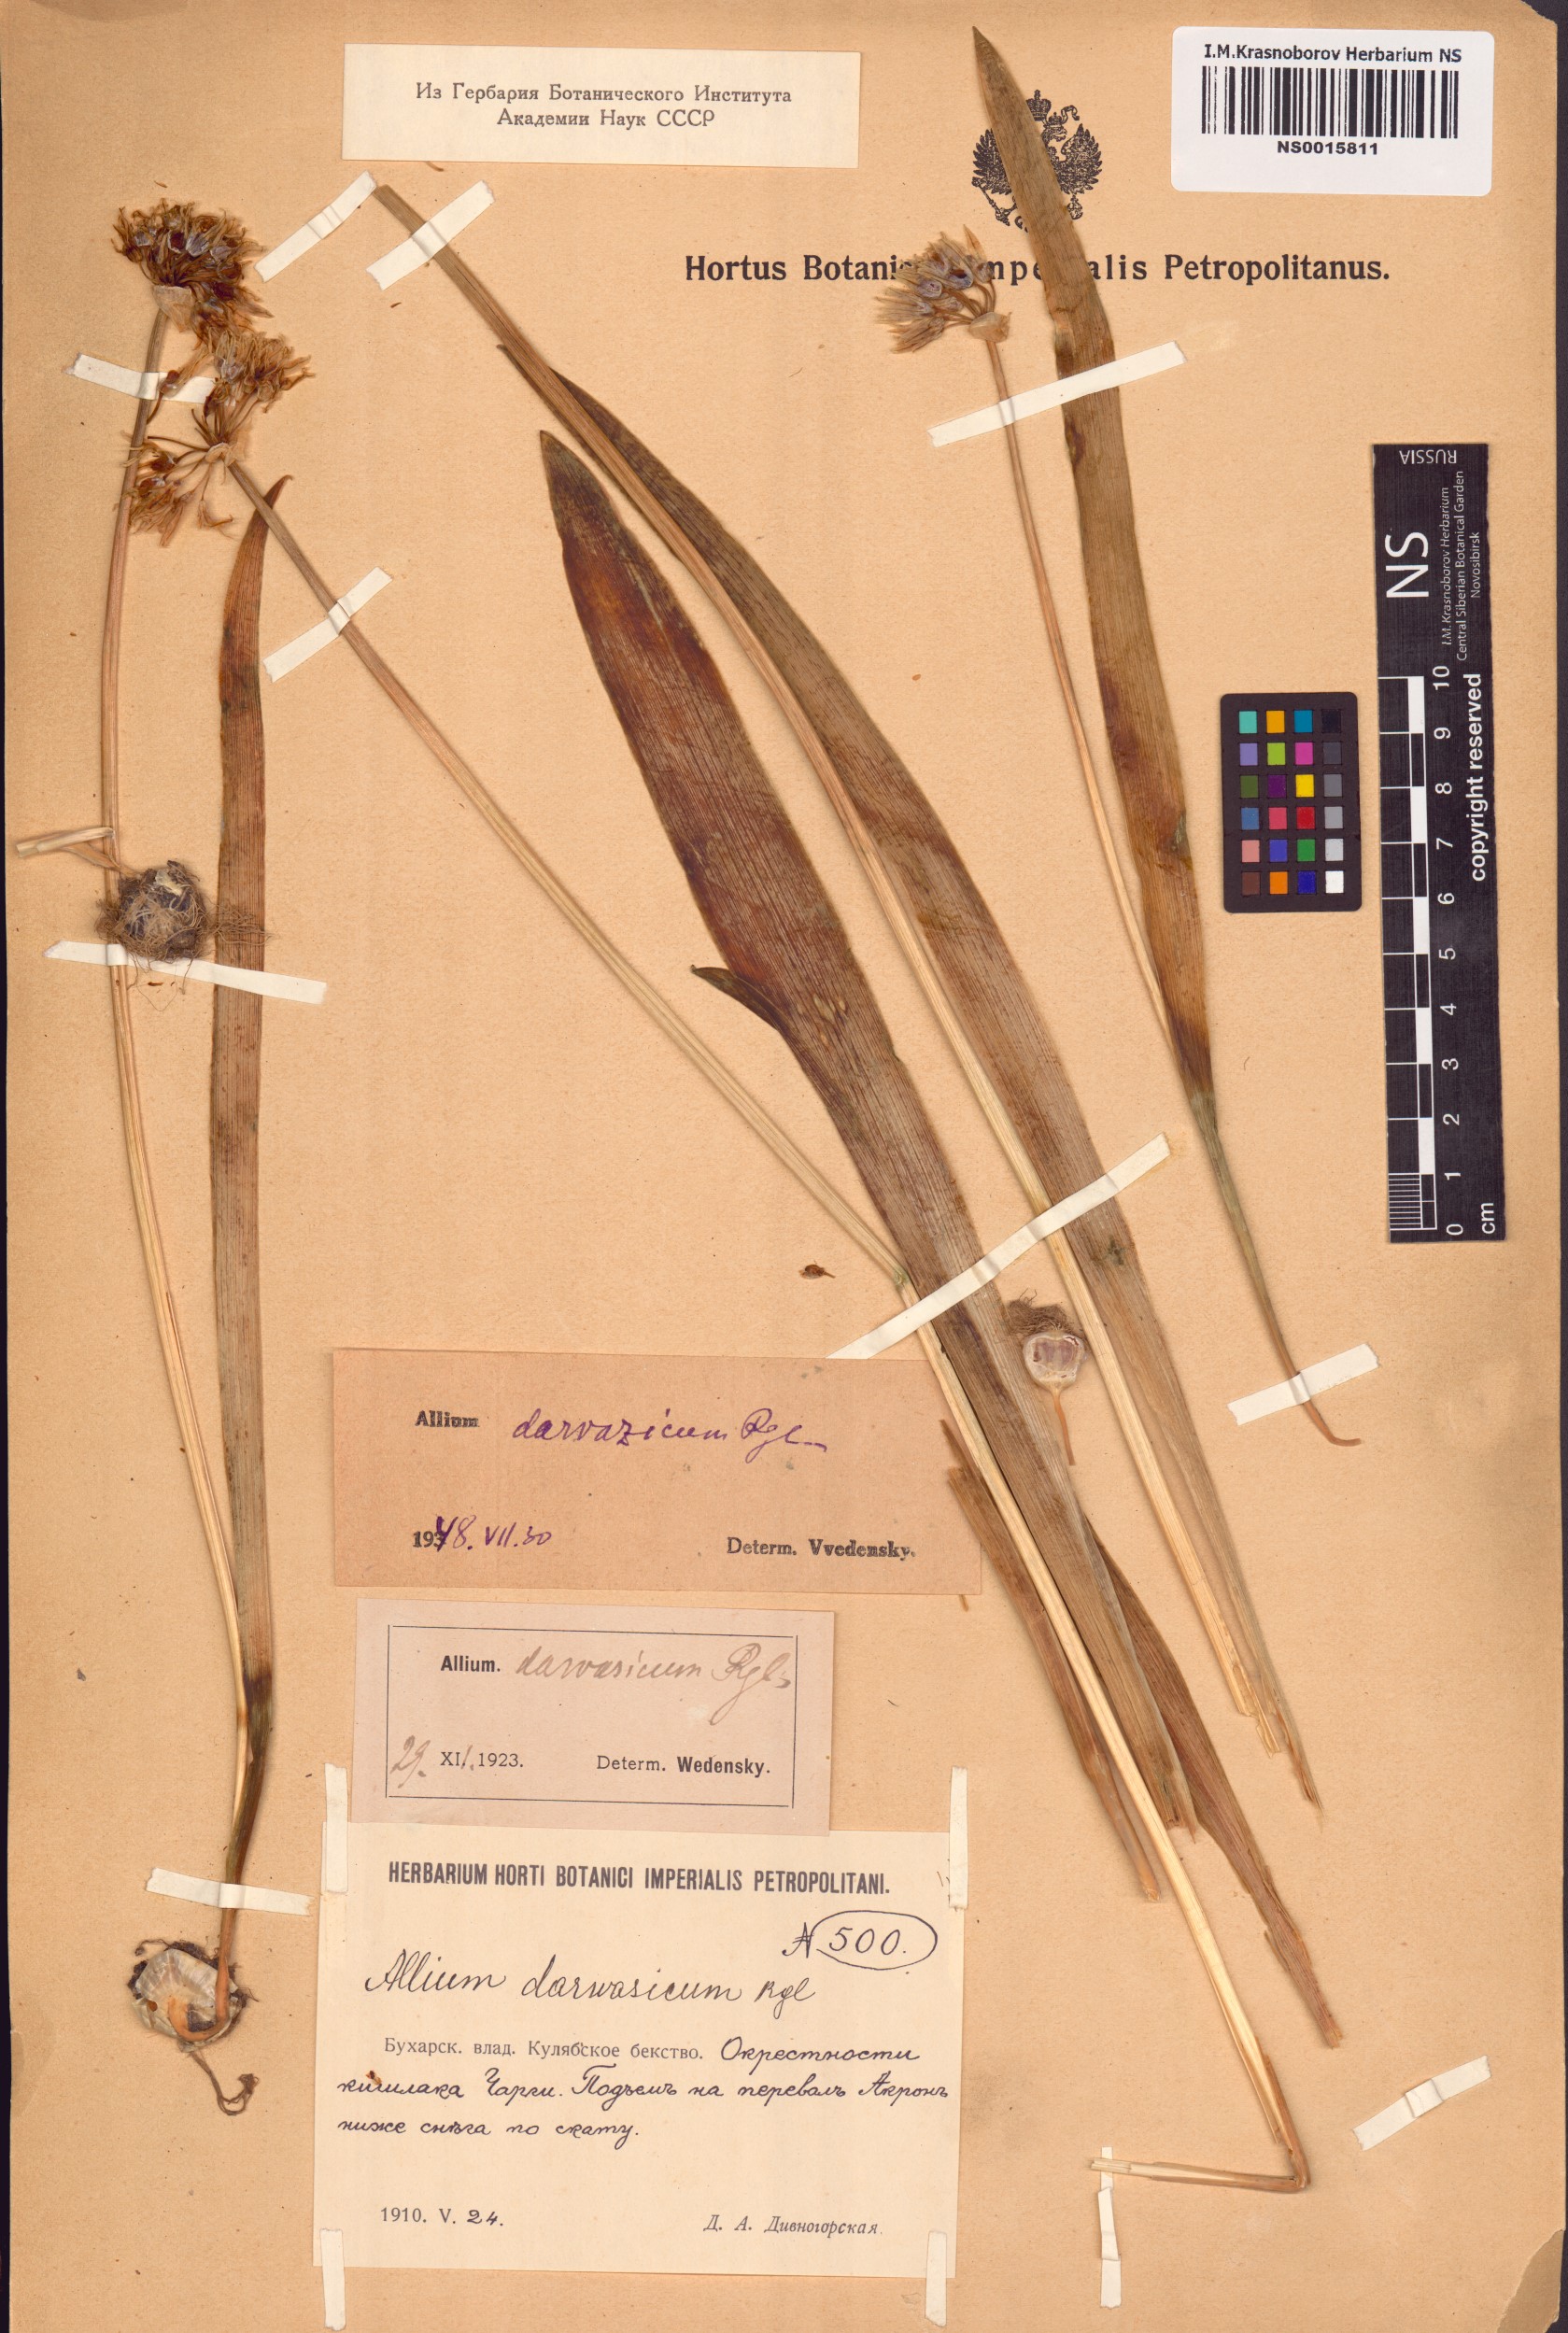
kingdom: Plantae
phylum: Tracheophyta
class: Liliopsida
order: Asparagales
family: Amaryllidaceae
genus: Allium
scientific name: Allium darwasicum
